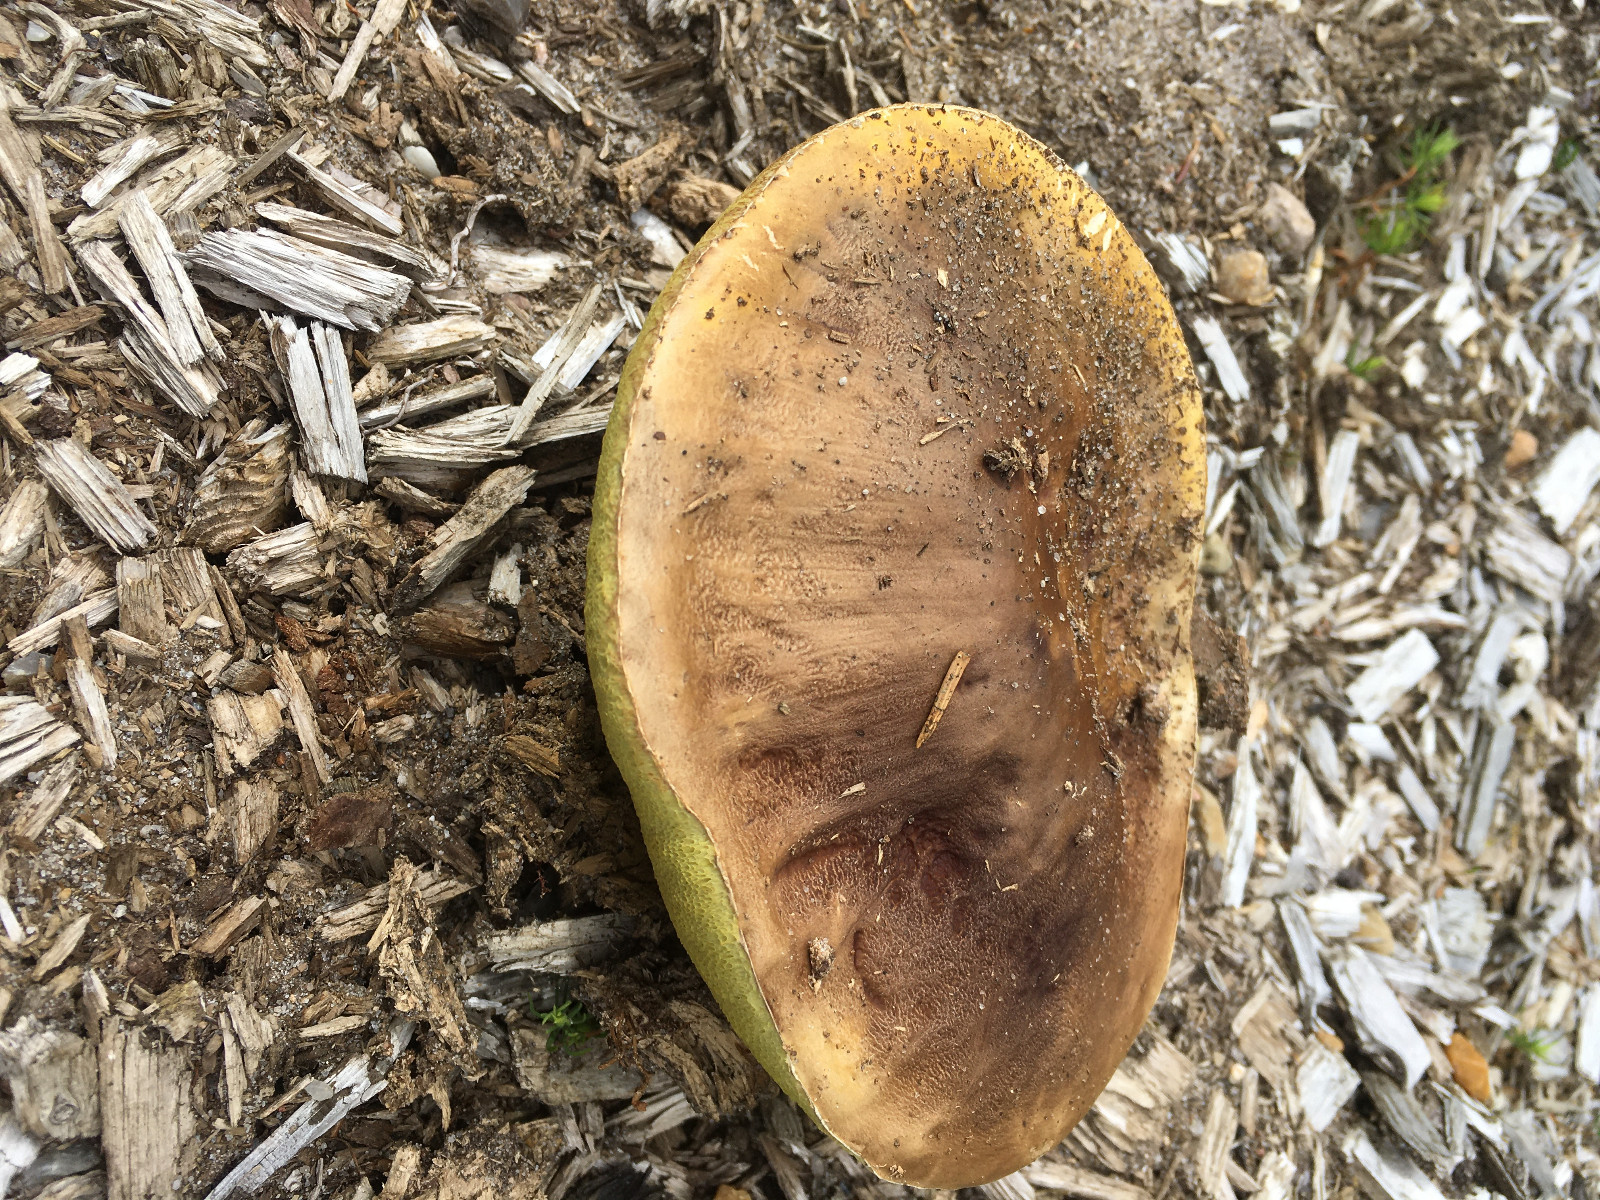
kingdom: Fungi
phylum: Basidiomycota
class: Agaricomycetes
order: Boletales
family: Boletaceae
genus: Boletus
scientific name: Boletus edulis
